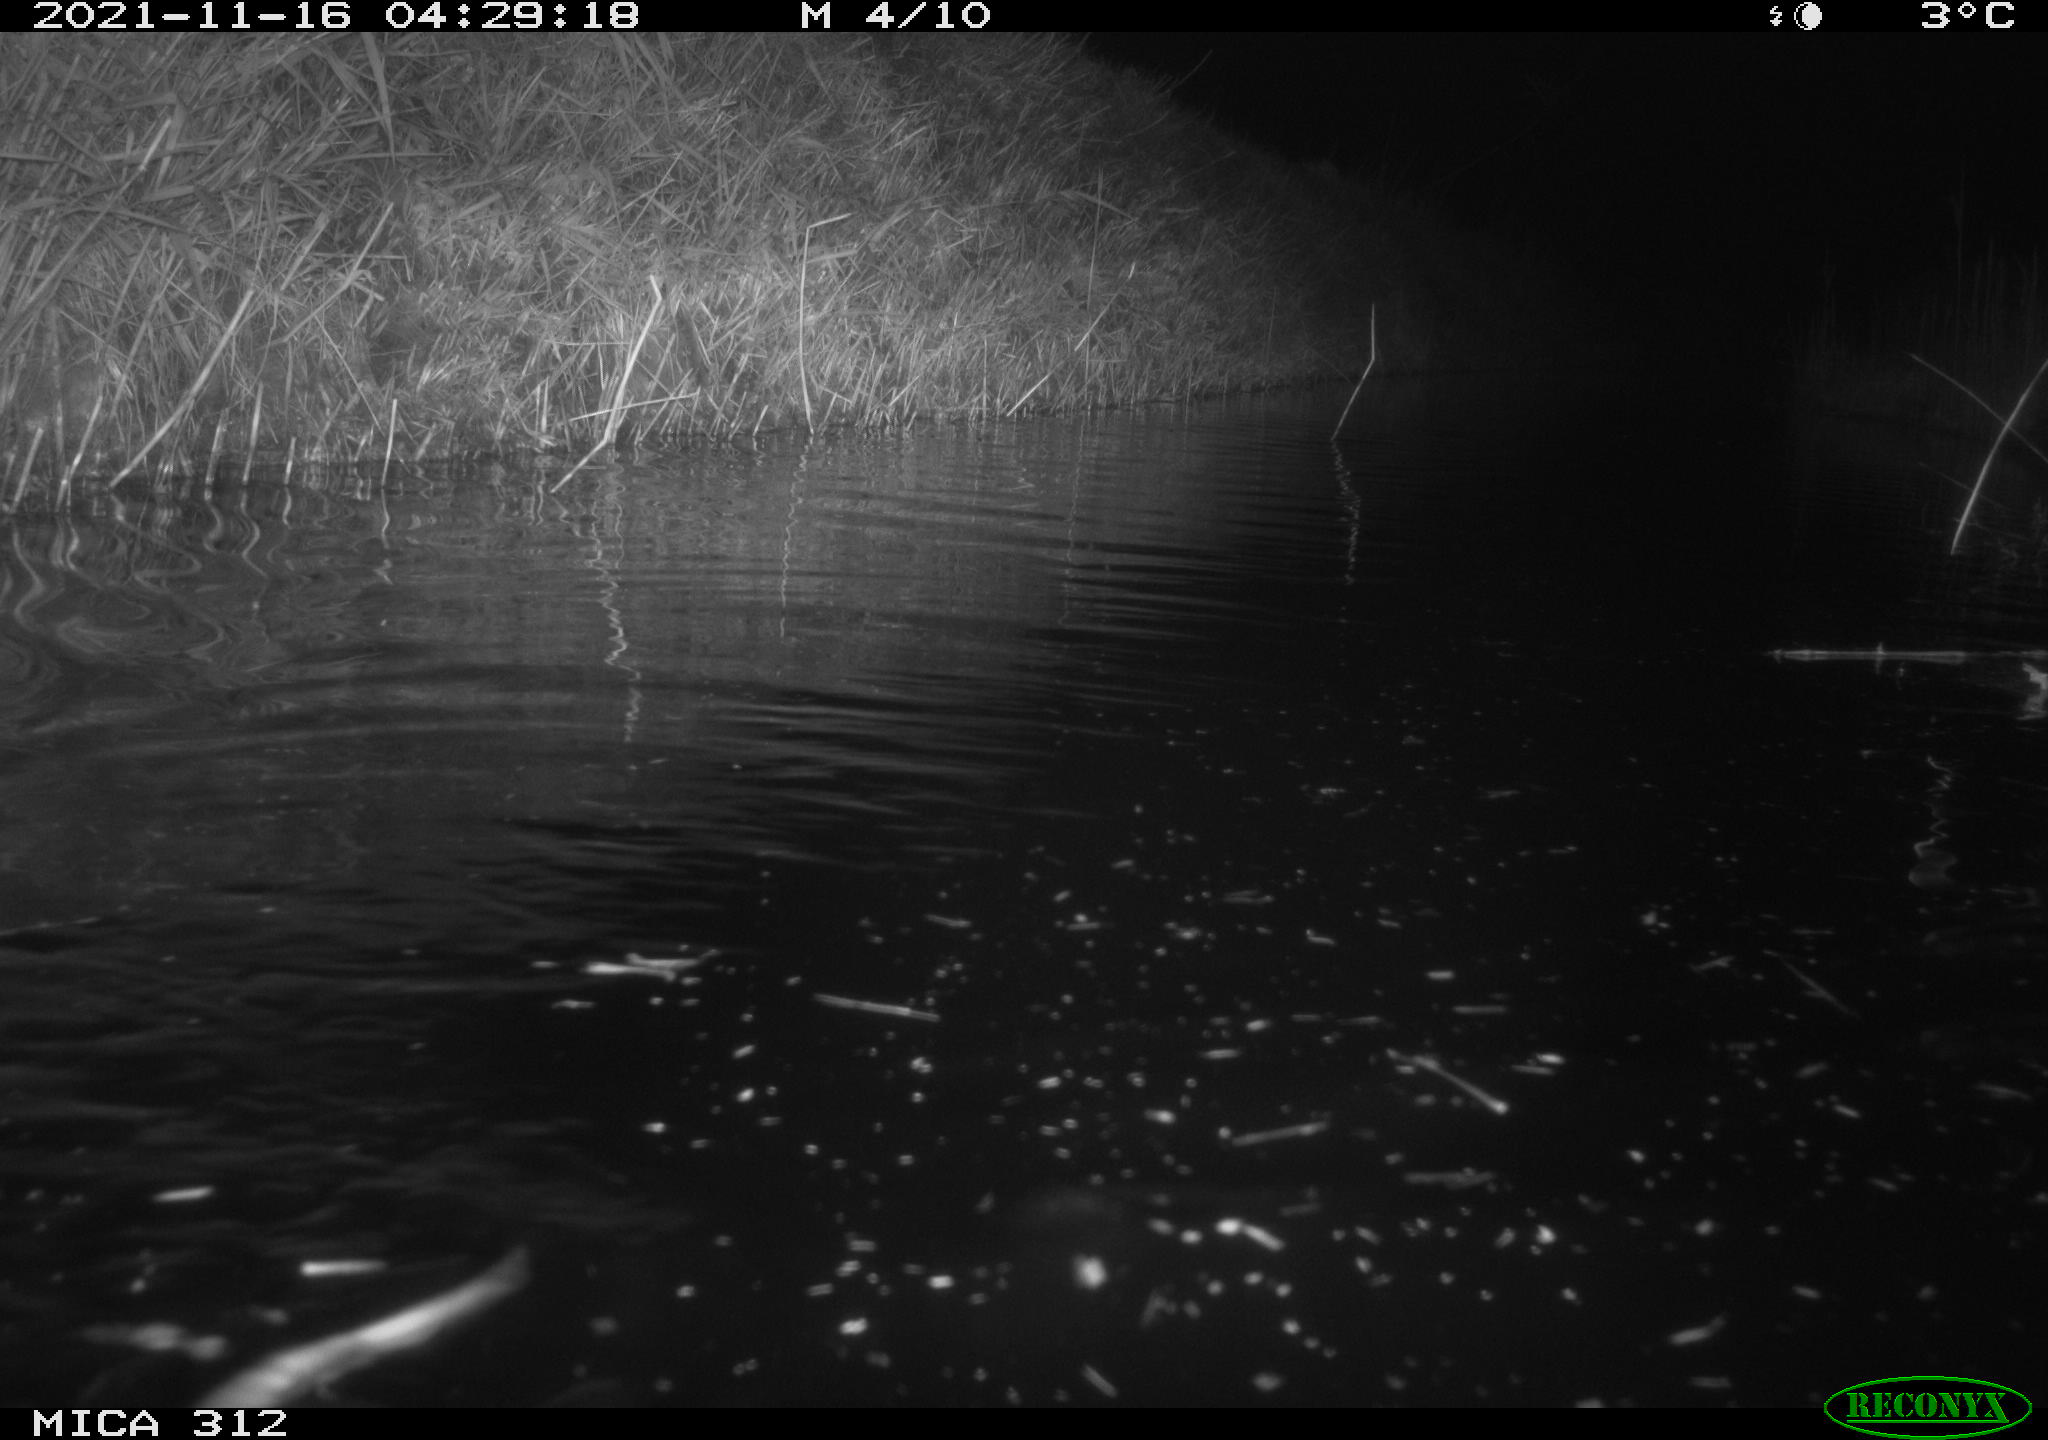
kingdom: Animalia
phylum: Chordata
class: Mammalia
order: Rodentia
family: Cricetidae
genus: Ondatra
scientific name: Ondatra zibethicus
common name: Muskrat
